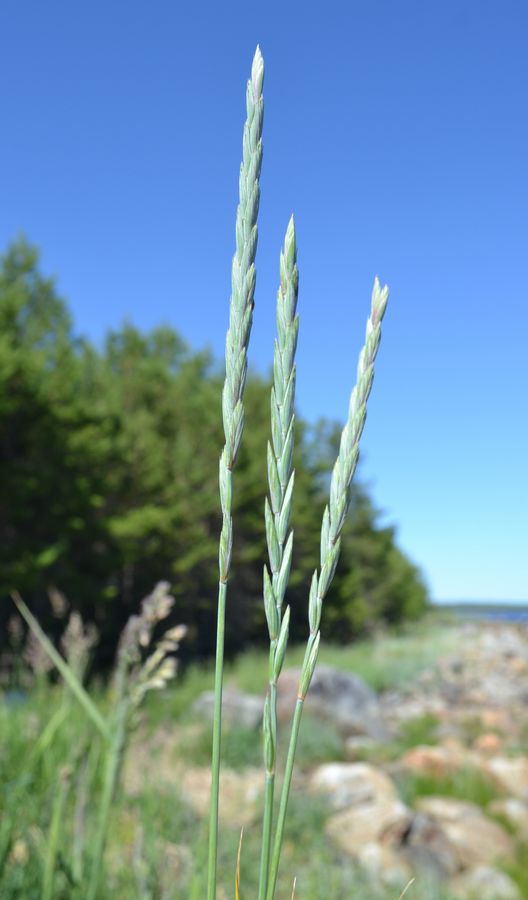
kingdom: Plantae
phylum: Tracheophyta
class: Liliopsida
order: Poales
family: Poaceae
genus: Elymus
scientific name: Elymus repens
